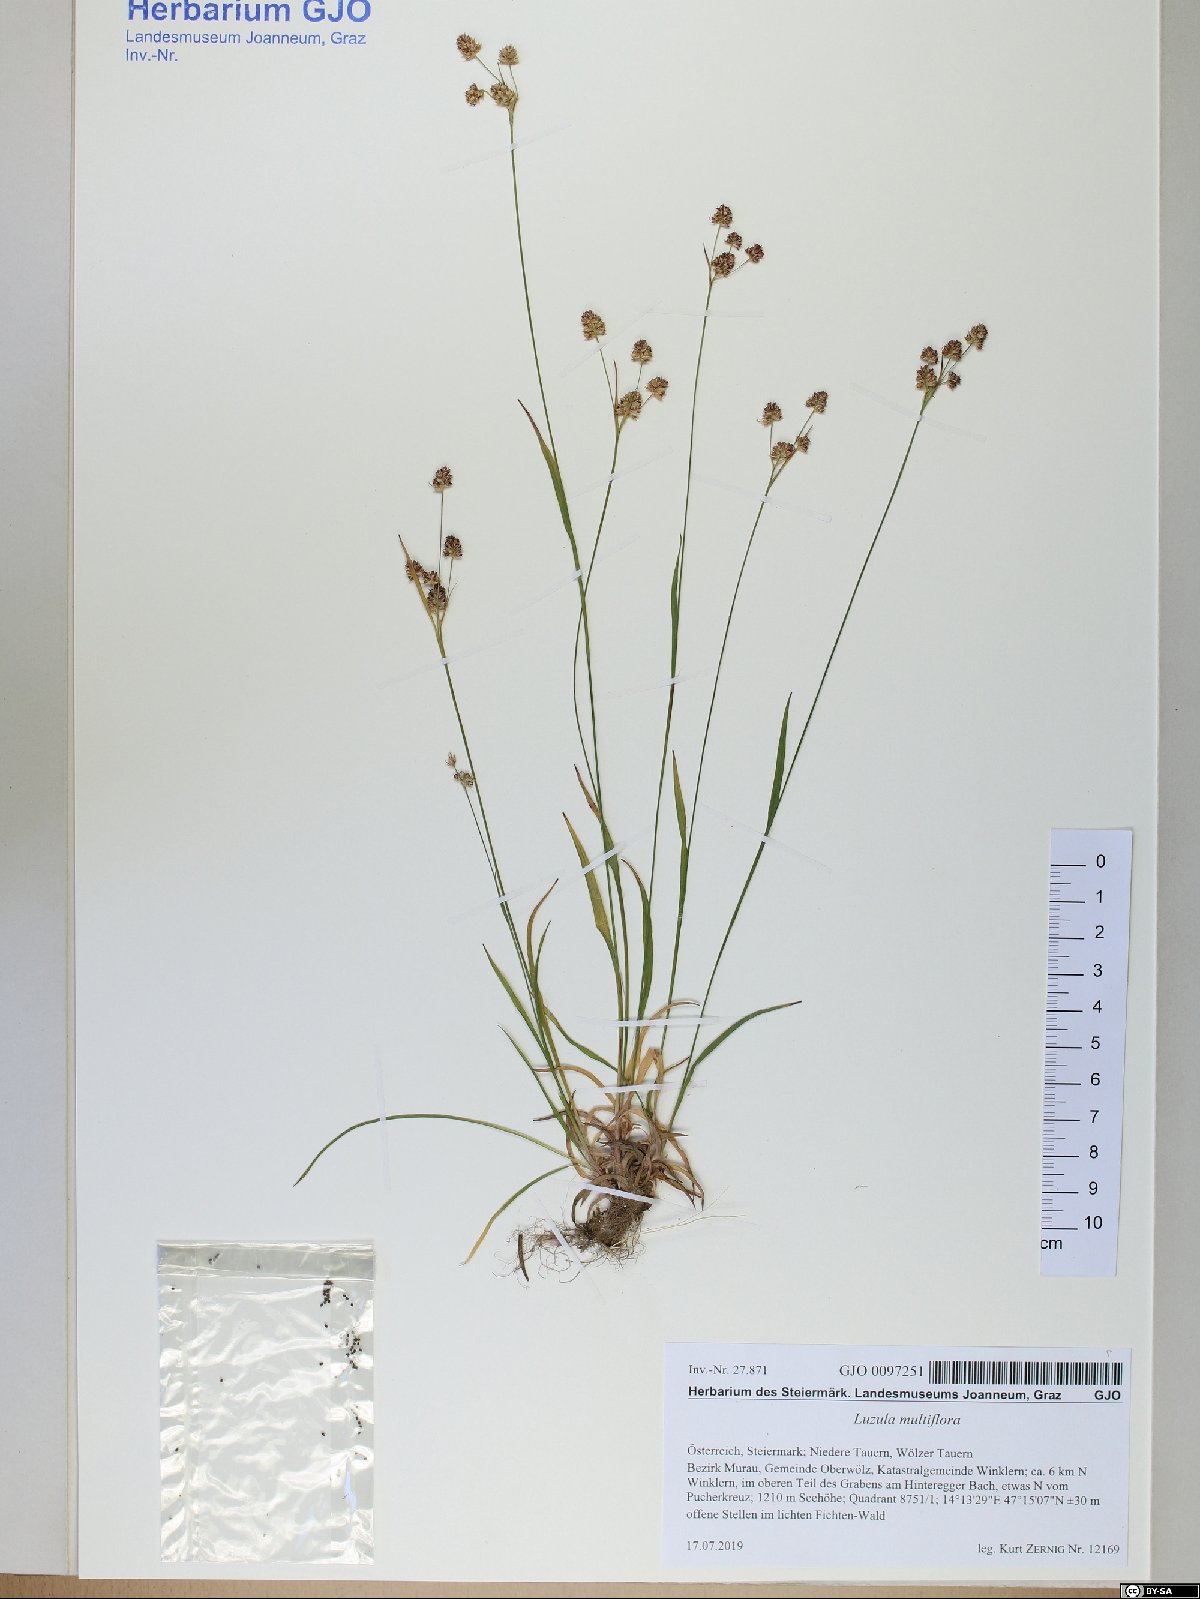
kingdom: Plantae
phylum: Tracheophyta
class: Liliopsida
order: Poales
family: Juncaceae
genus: Luzula
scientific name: Luzula multiflora
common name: Heath wood-rush
